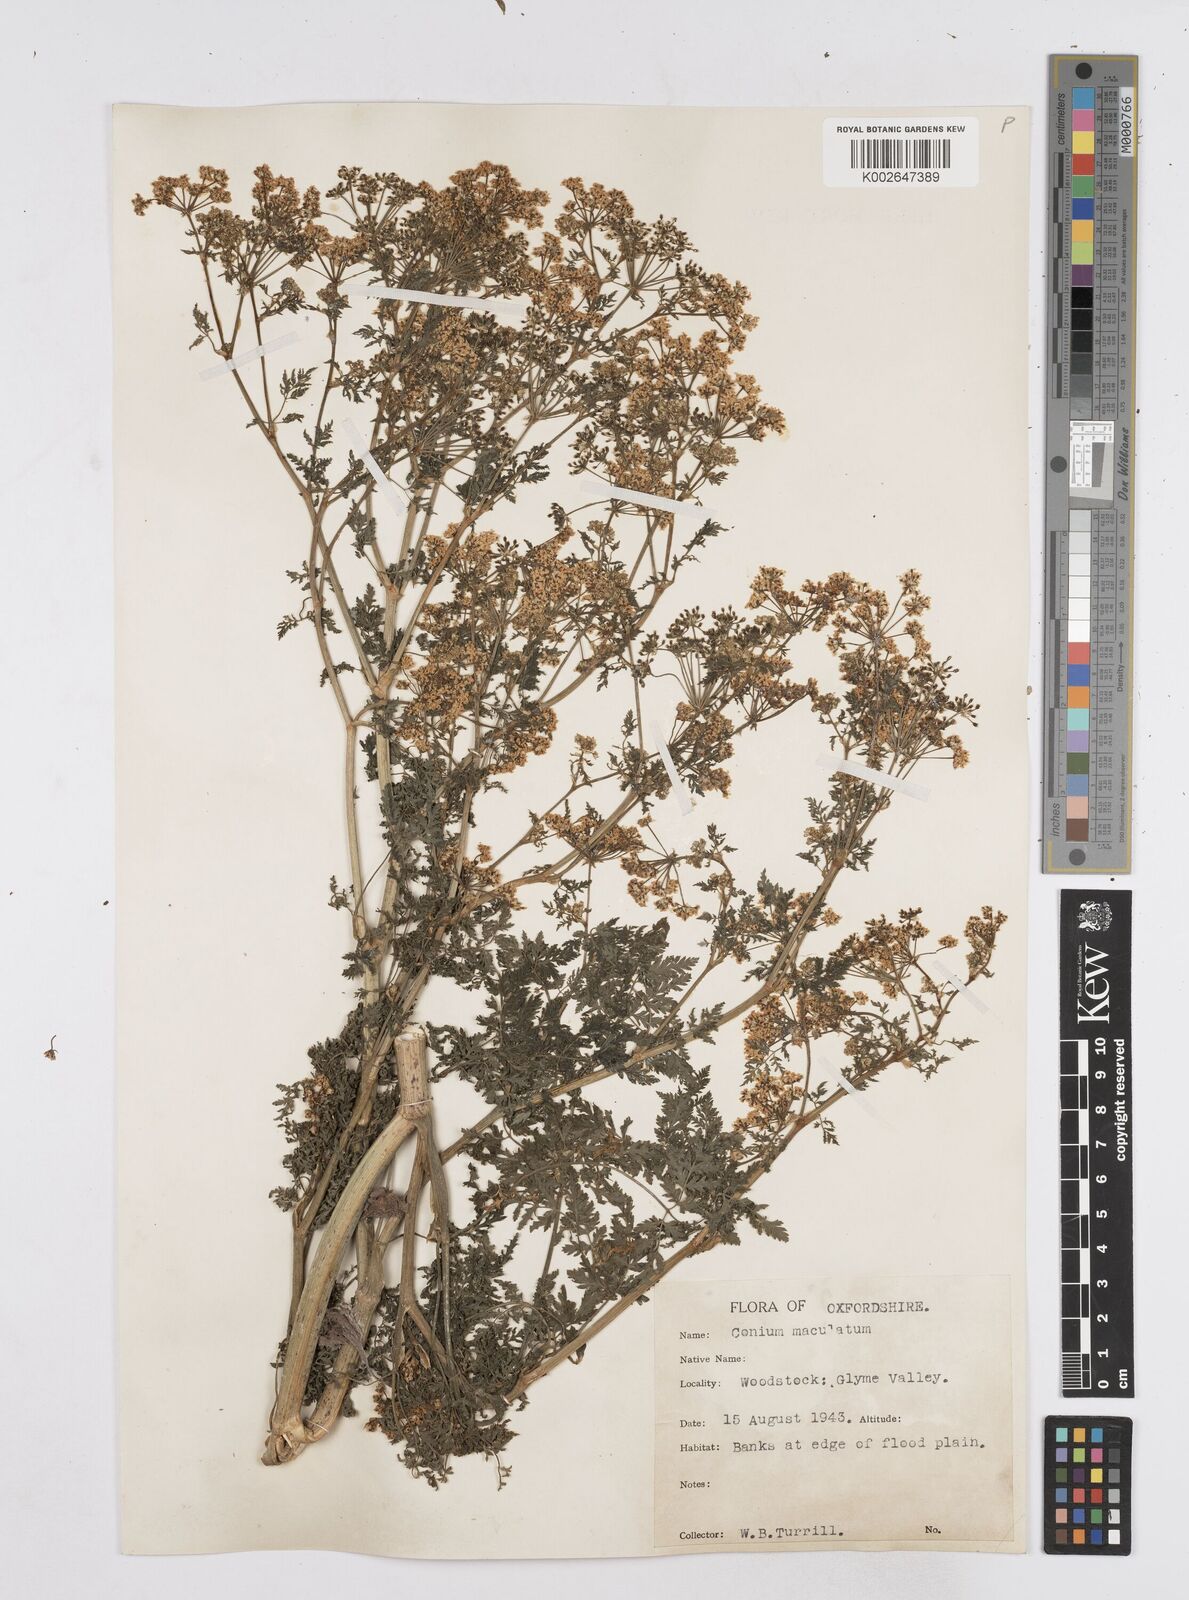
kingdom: Plantae
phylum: Tracheophyta
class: Magnoliopsida
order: Apiales
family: Apiaceae
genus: Conium
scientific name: Conium maculatum
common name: Hemlock
